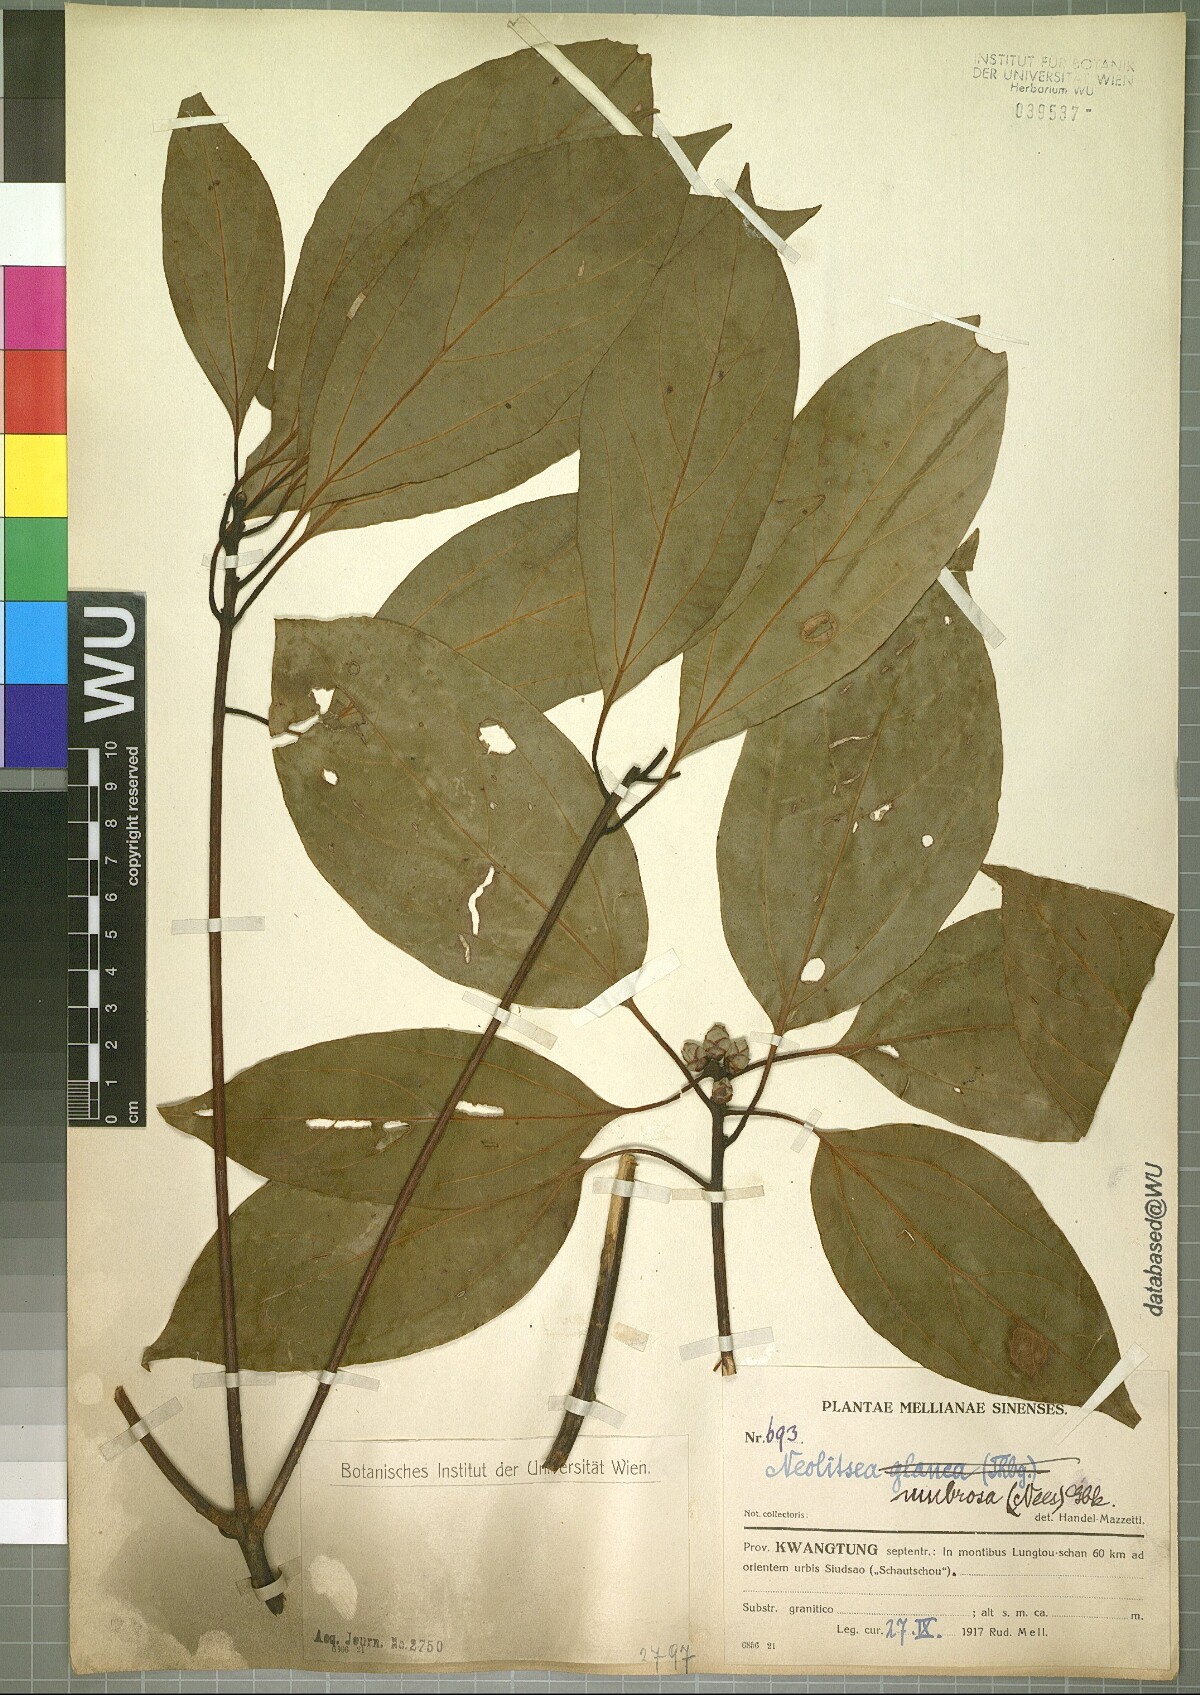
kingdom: Plantae
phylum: Tracheophyta
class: Magnoliopsida
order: Laurales
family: Lauraceae
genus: Neolitsea
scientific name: Neolitsea umbrosa
